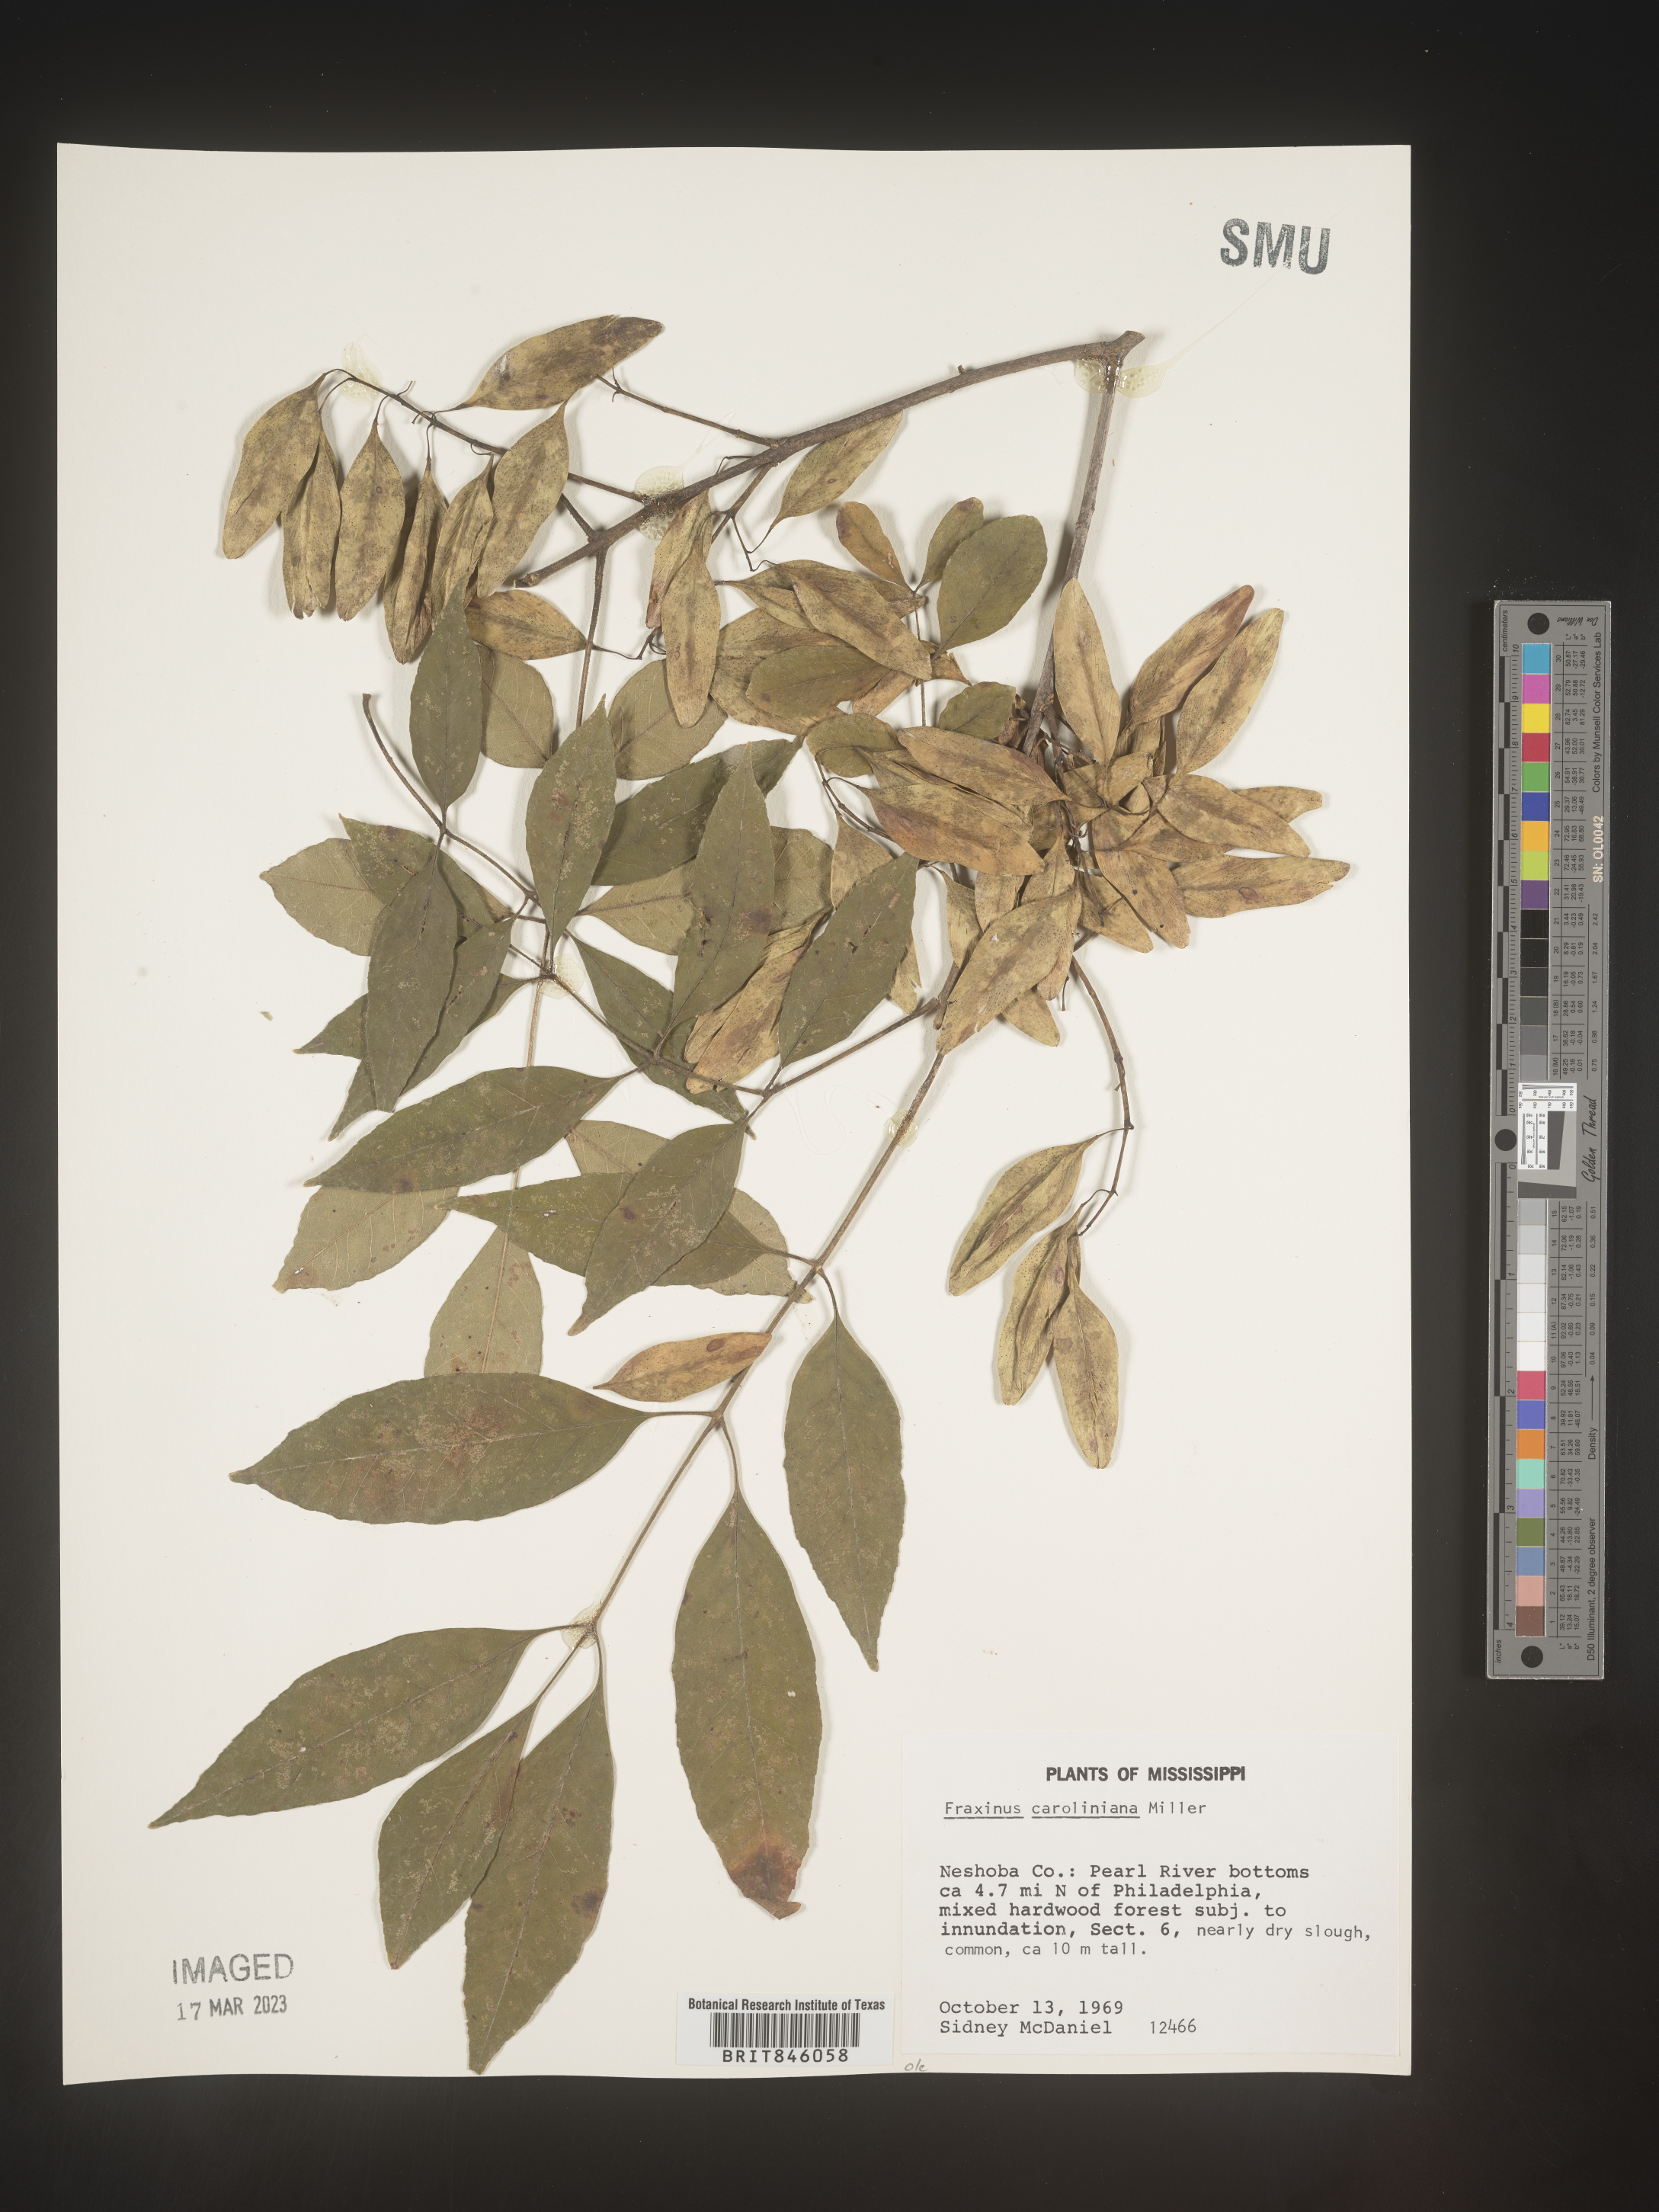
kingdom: Plantae
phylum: Tracheophyta
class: Magnoliopsida
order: Lamiales
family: Oleaceae
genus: Fraxinus
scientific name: Fraxinus caroliniana
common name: Carolina ash
